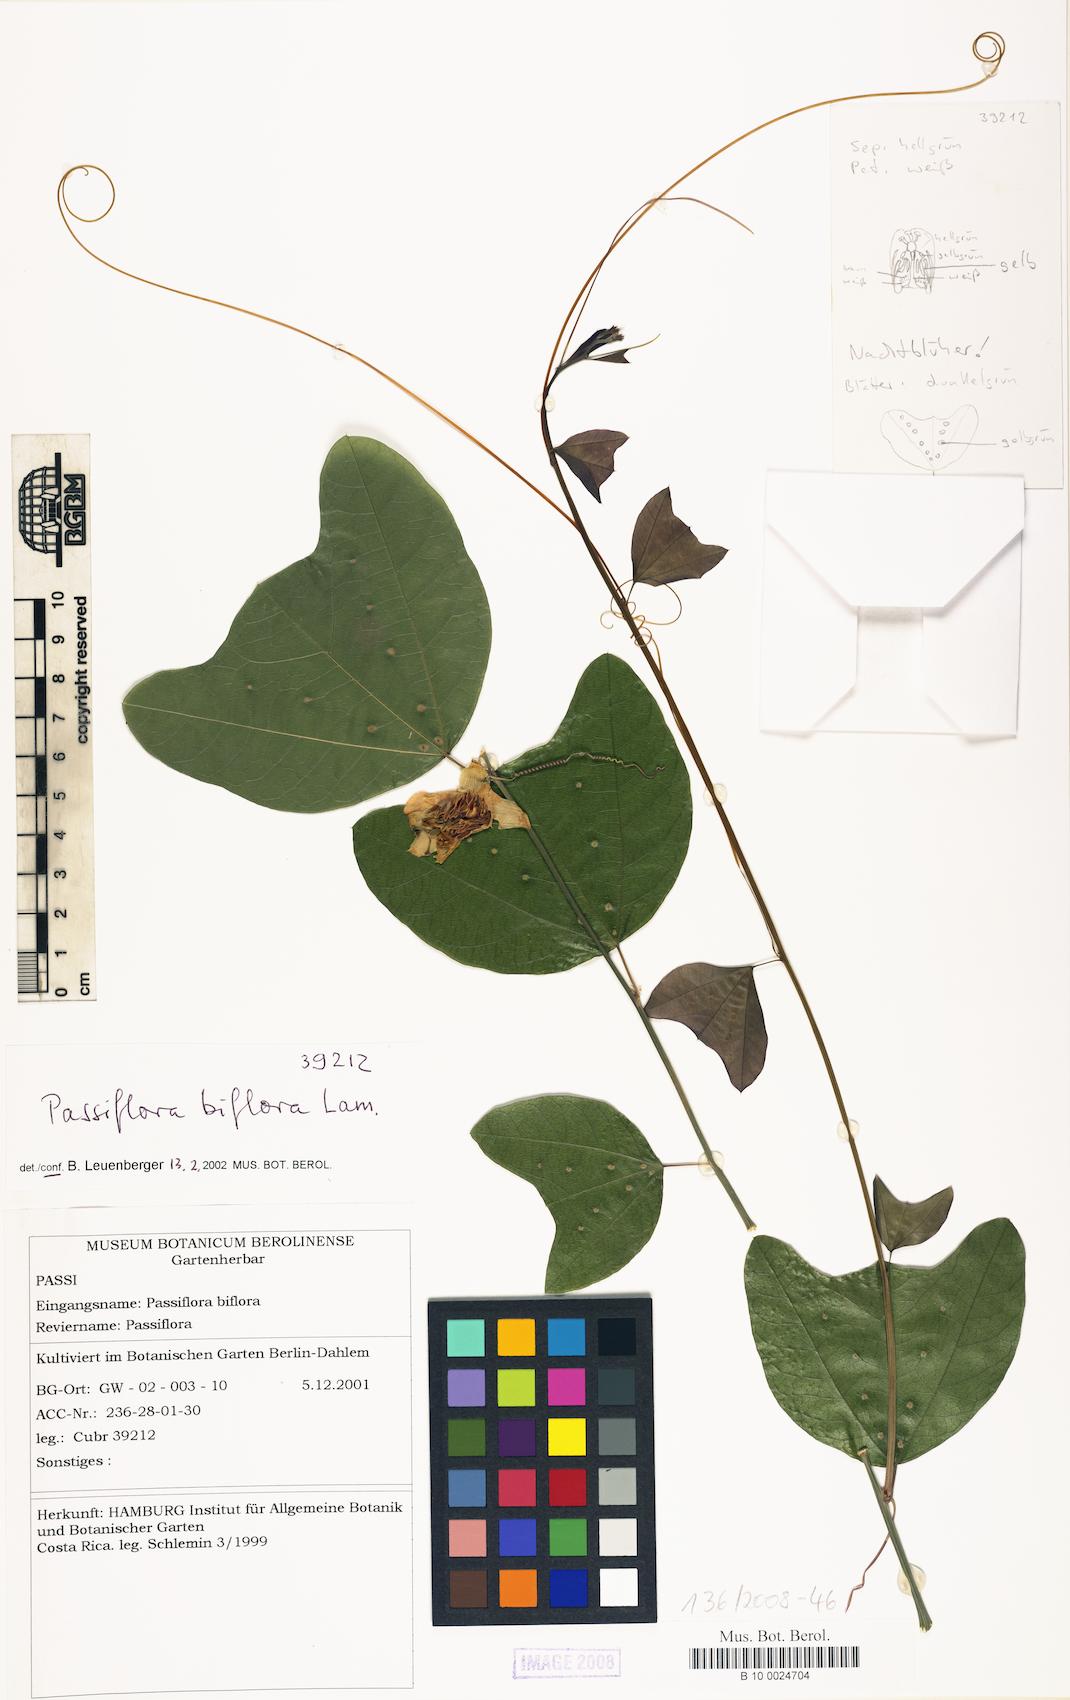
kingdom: Plantae
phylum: Tracheophyta
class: Magnoliopsida
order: Malpighiales
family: Passifloraceae
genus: Passiflora
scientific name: Passiflora biflora
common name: Twoflower passionflower
